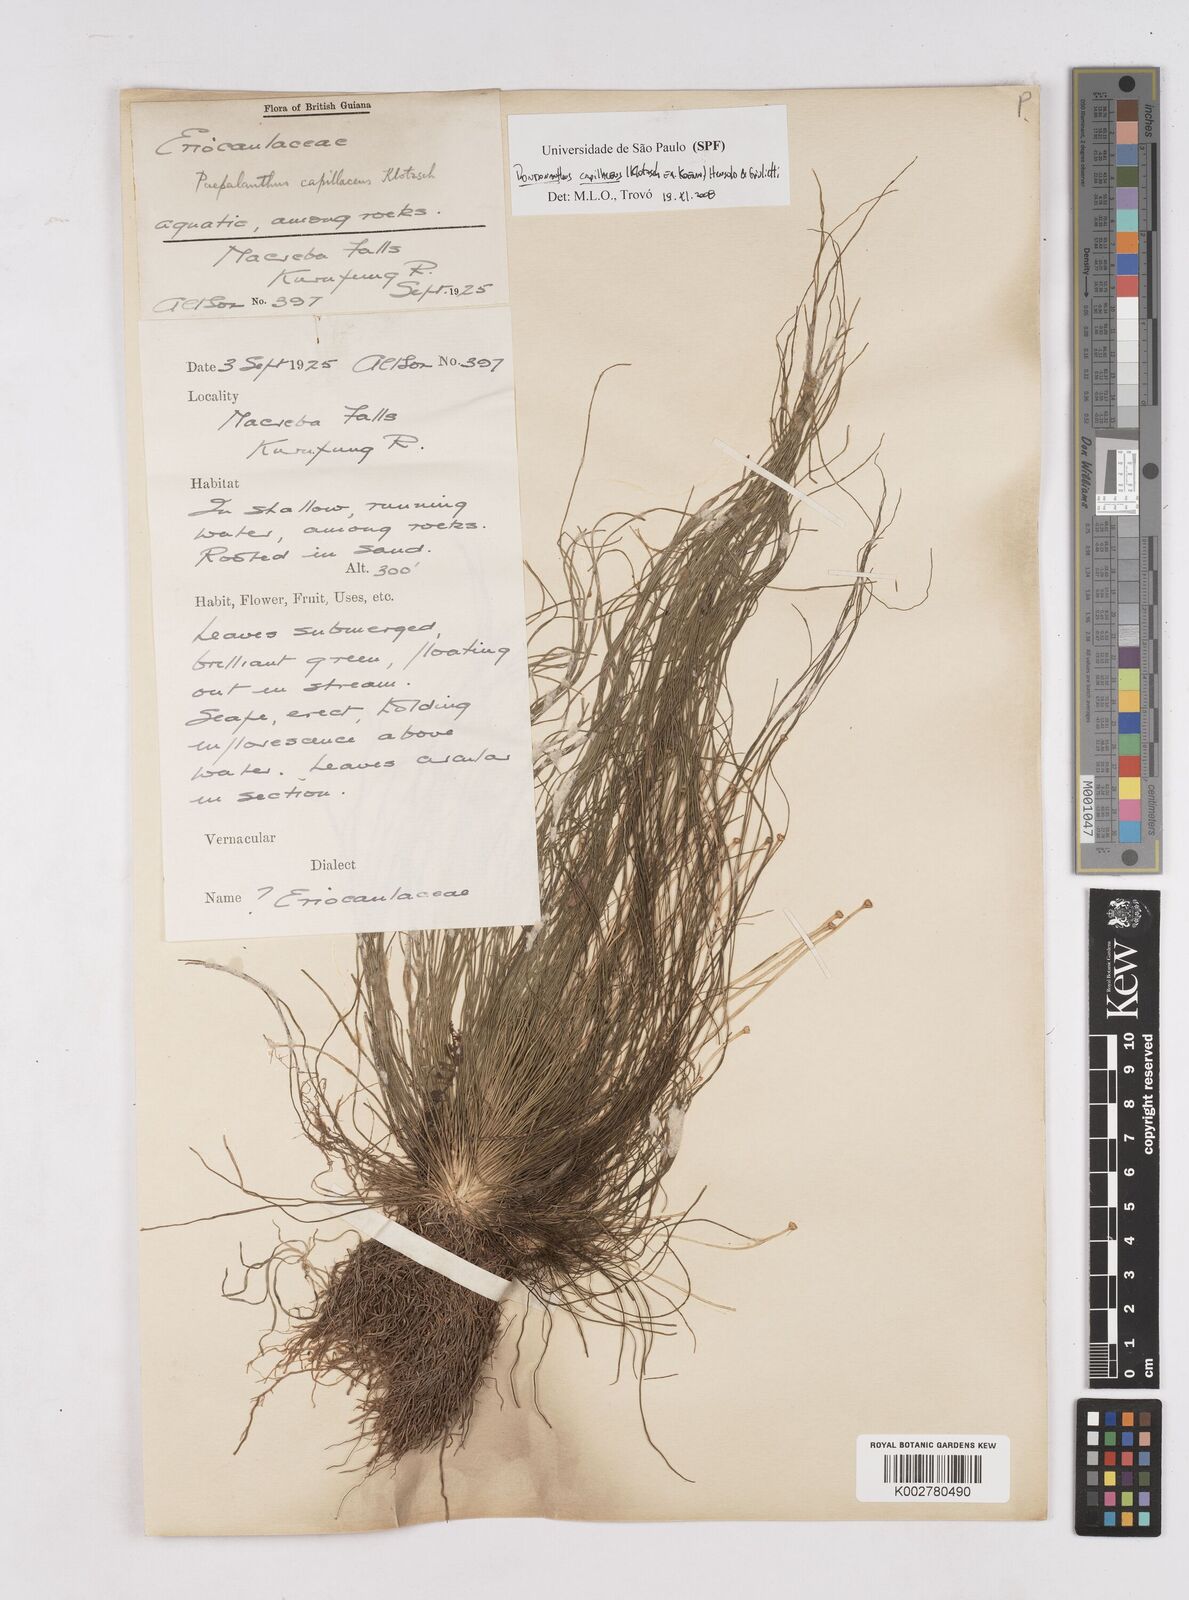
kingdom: Plantae
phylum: Tracheophyta
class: Liliopsida
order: Poales
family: Eriocaulaceae
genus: Rondonanthus
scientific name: Rondonanthus capillaceus
